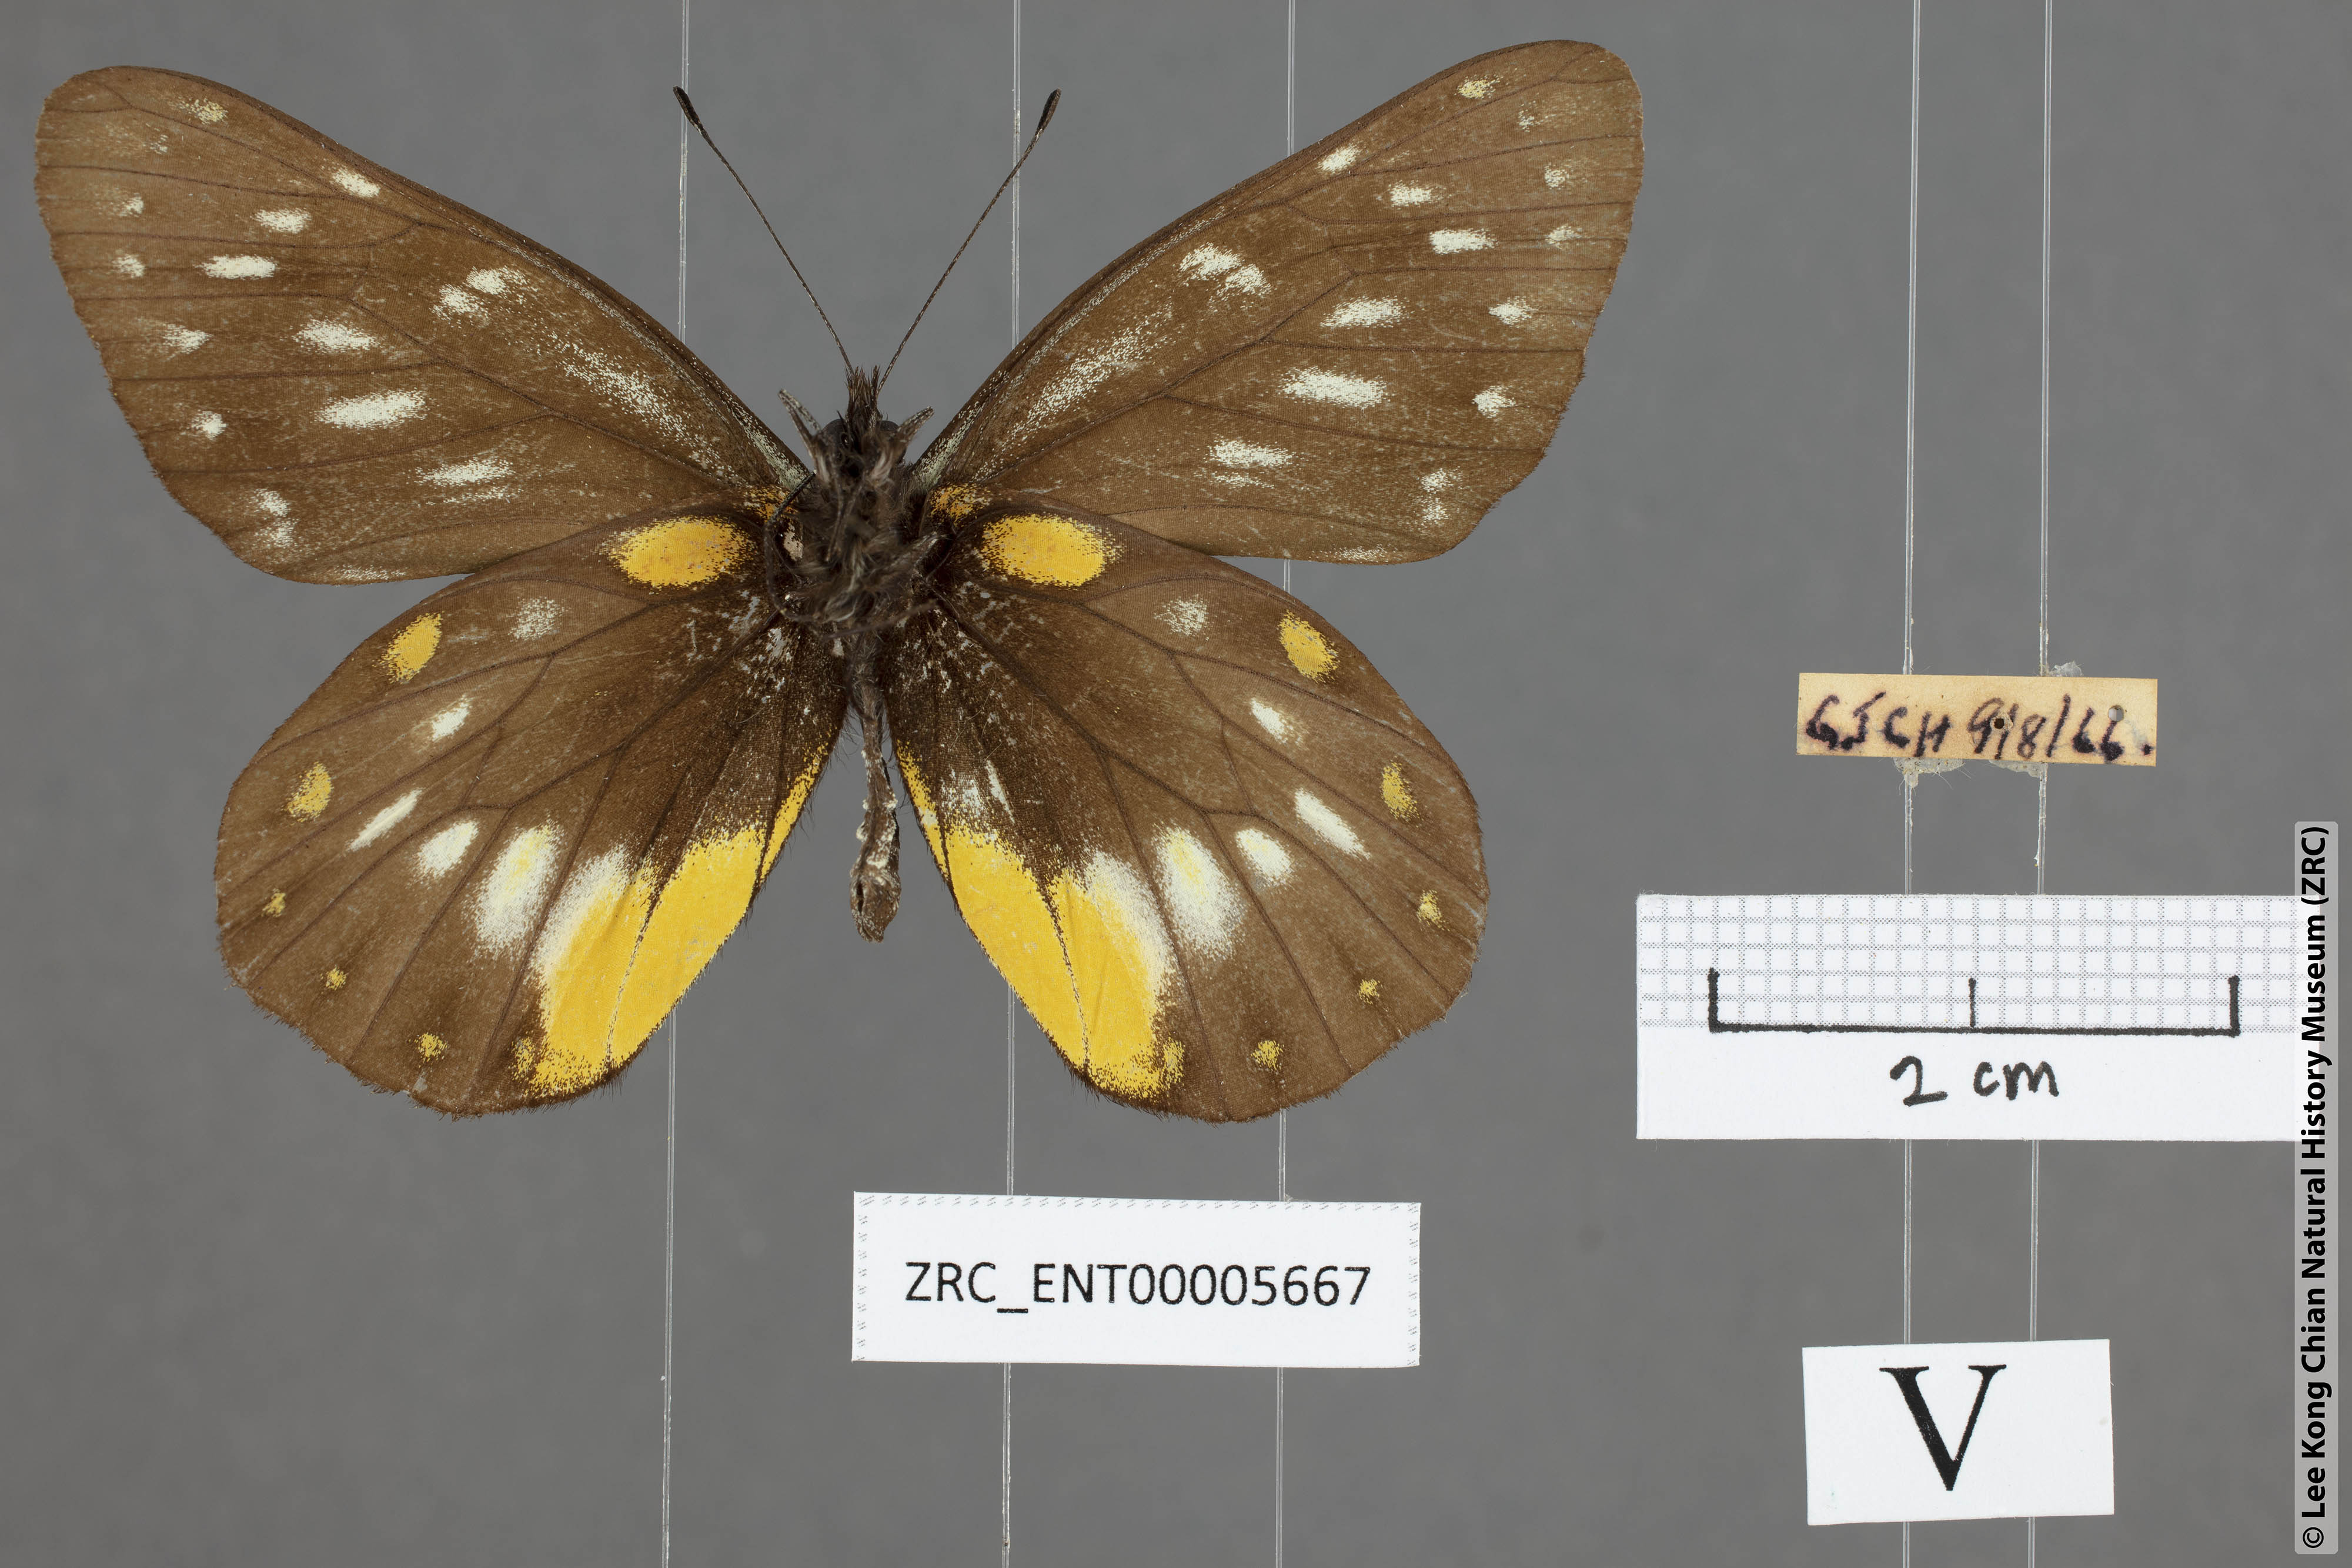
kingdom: Animalia
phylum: Arthropoda
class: Insecta
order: Lepidoptera
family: Pieridae
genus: Delias
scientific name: Delias belladonna
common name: Hill jezebel
